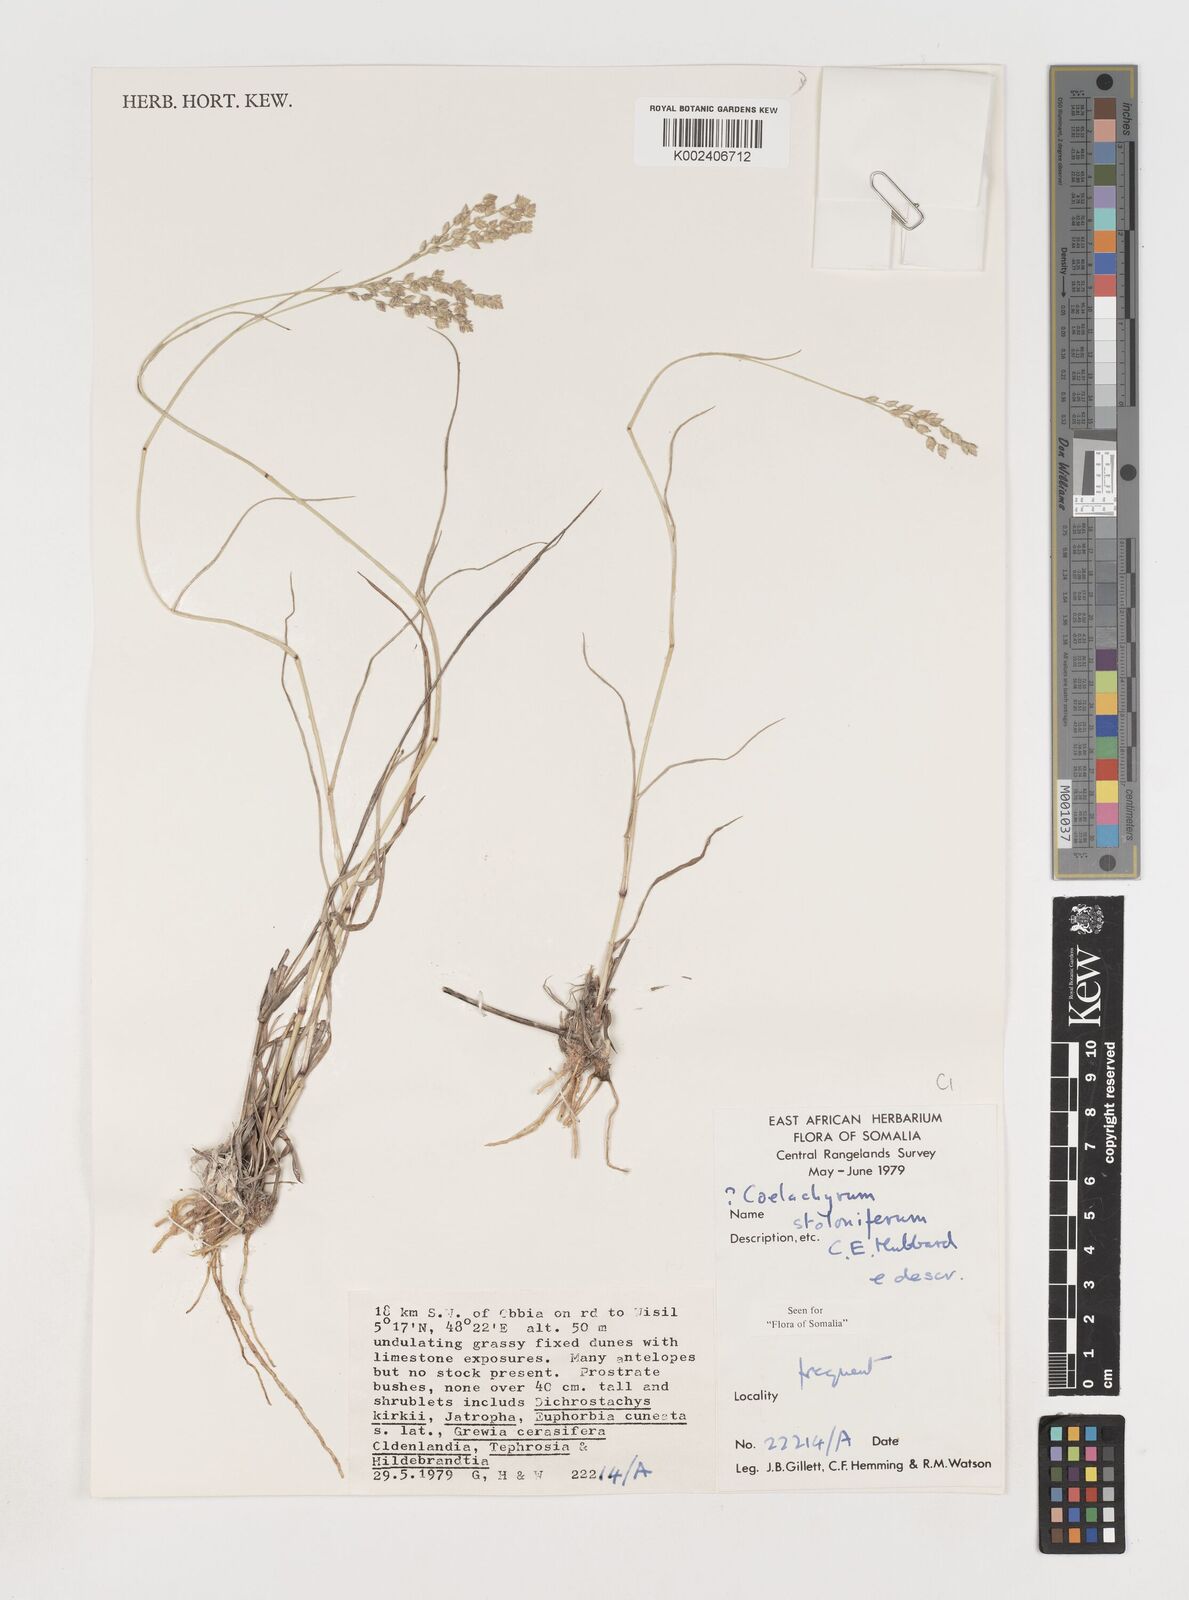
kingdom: Plantae
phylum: Tracheophyta
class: Liliopsida
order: Poales
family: Poaceae
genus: Coelachyrum
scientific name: Coelachyrum piercei
